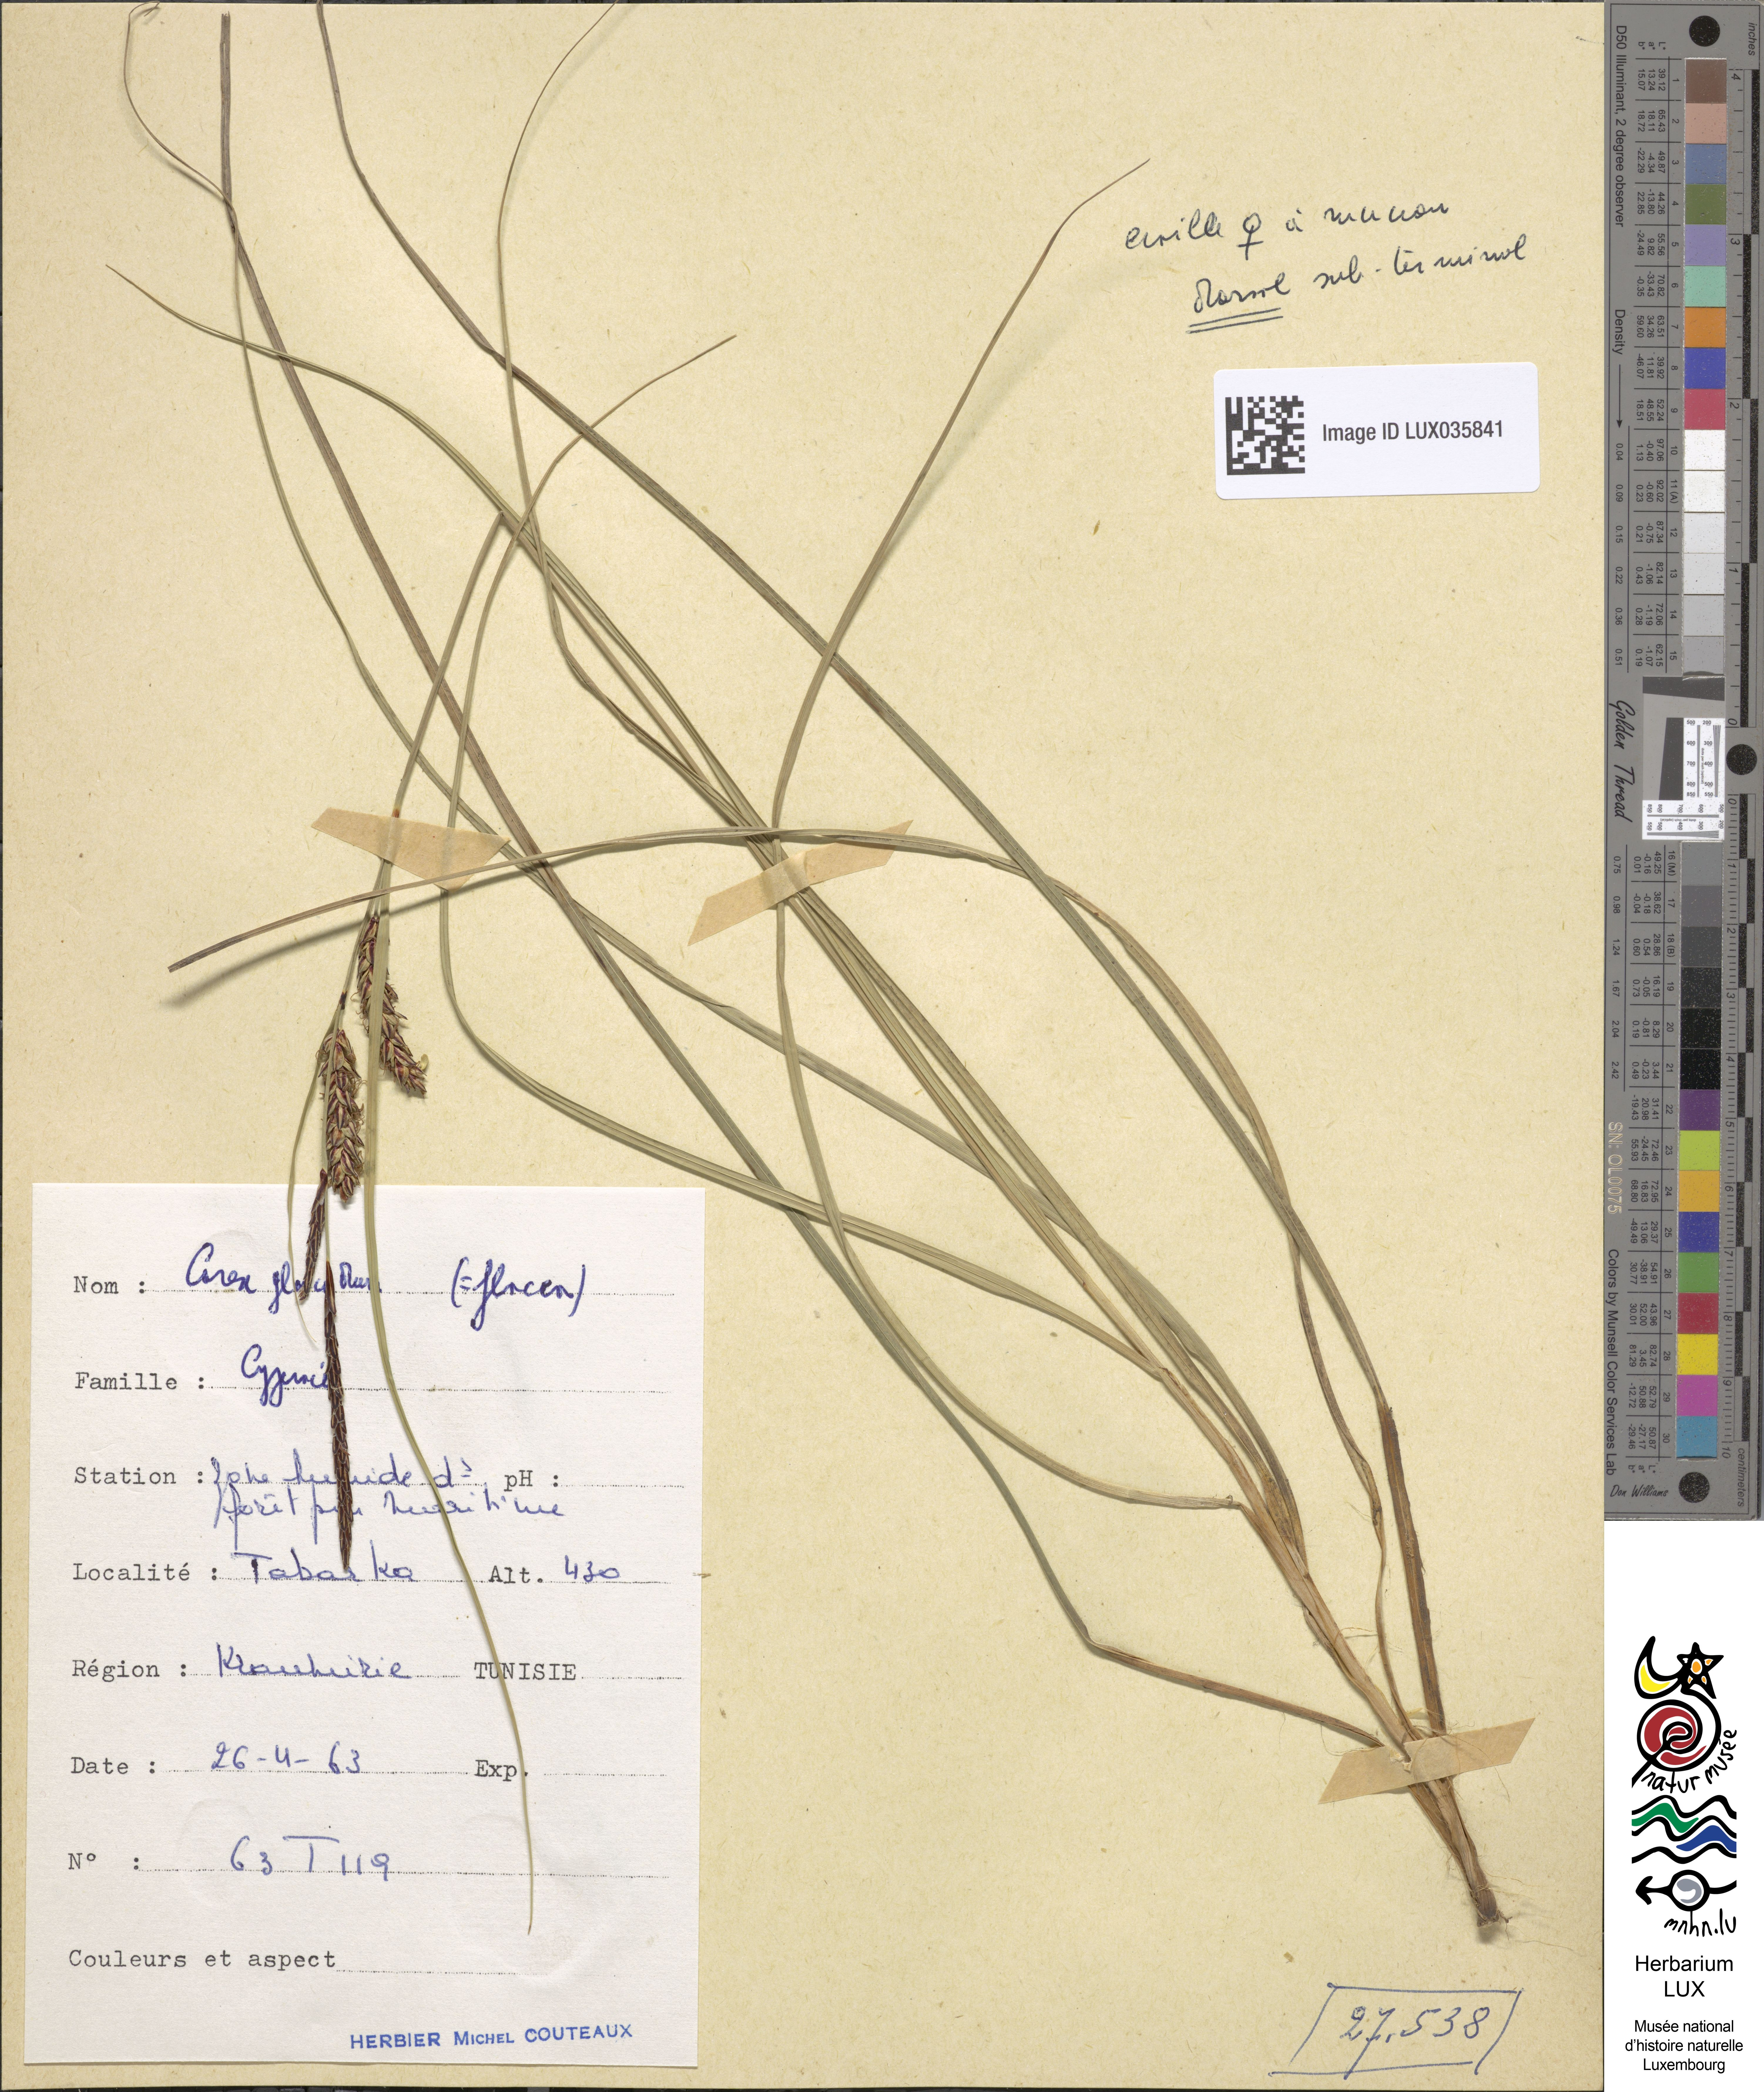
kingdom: Plantae
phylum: Tracheophyta
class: Liliopsida
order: Poales
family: Cyperaceae
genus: Carex
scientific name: Carex flacca
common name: Glaucous sedge
